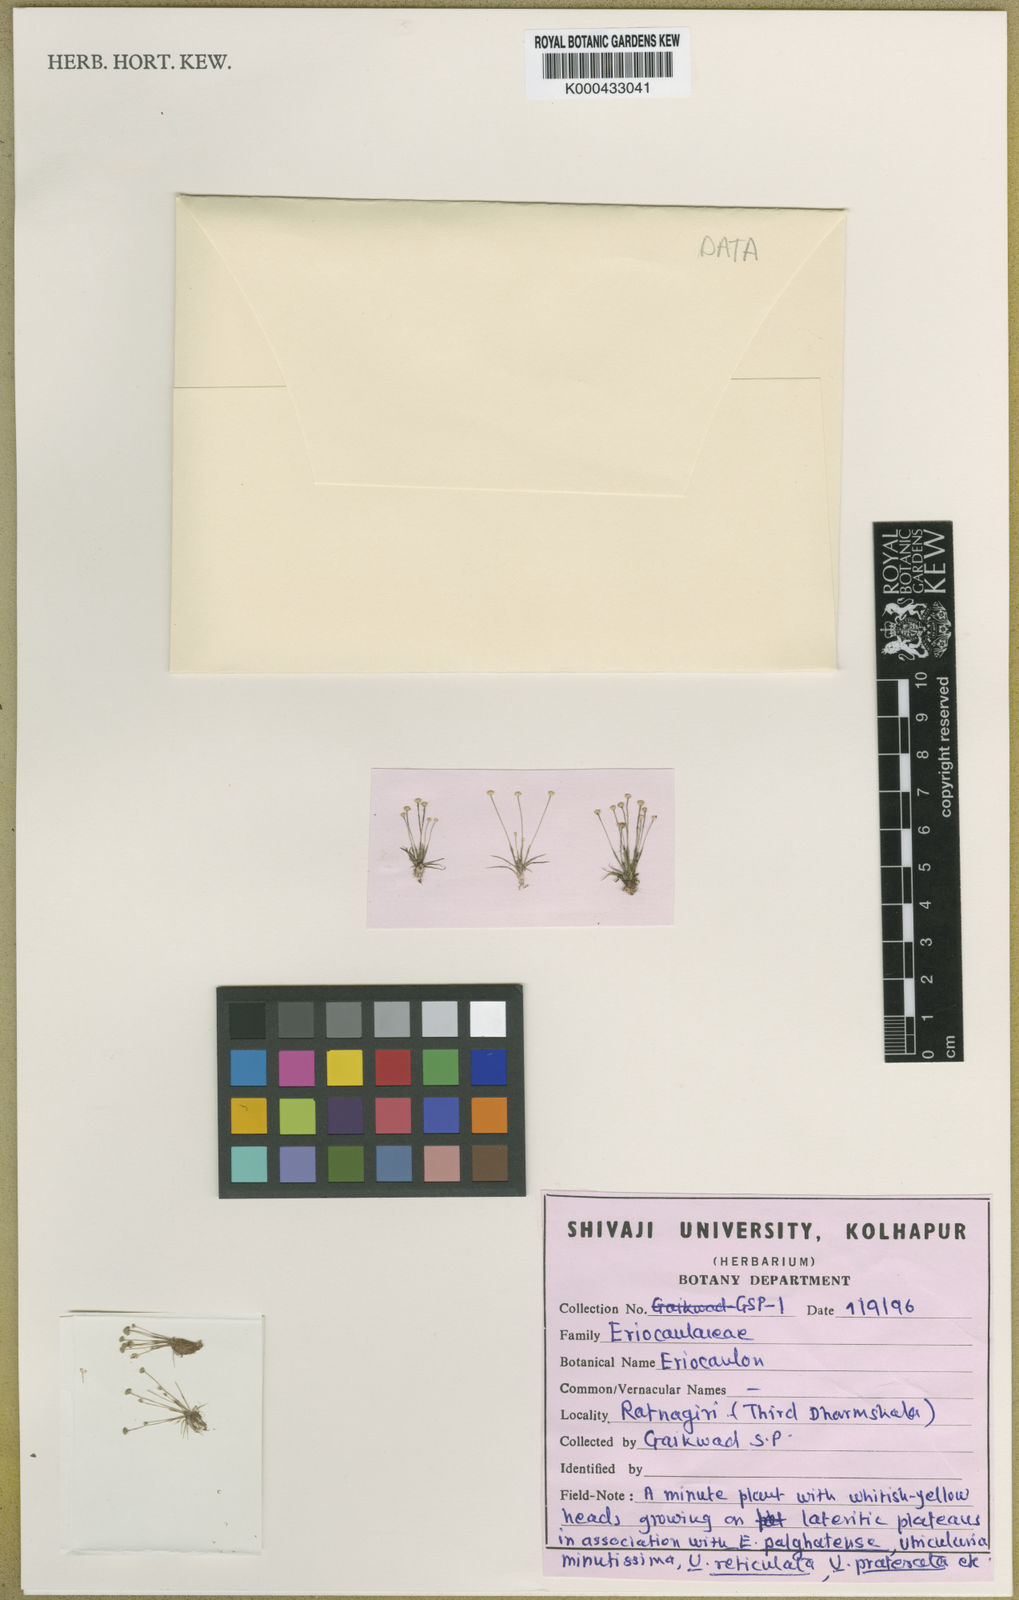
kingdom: Plantae
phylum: Tracheophyta
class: Liliopsida
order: Poales
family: Eriocaulaceae
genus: Eriocaulon
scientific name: Eriocaulon
